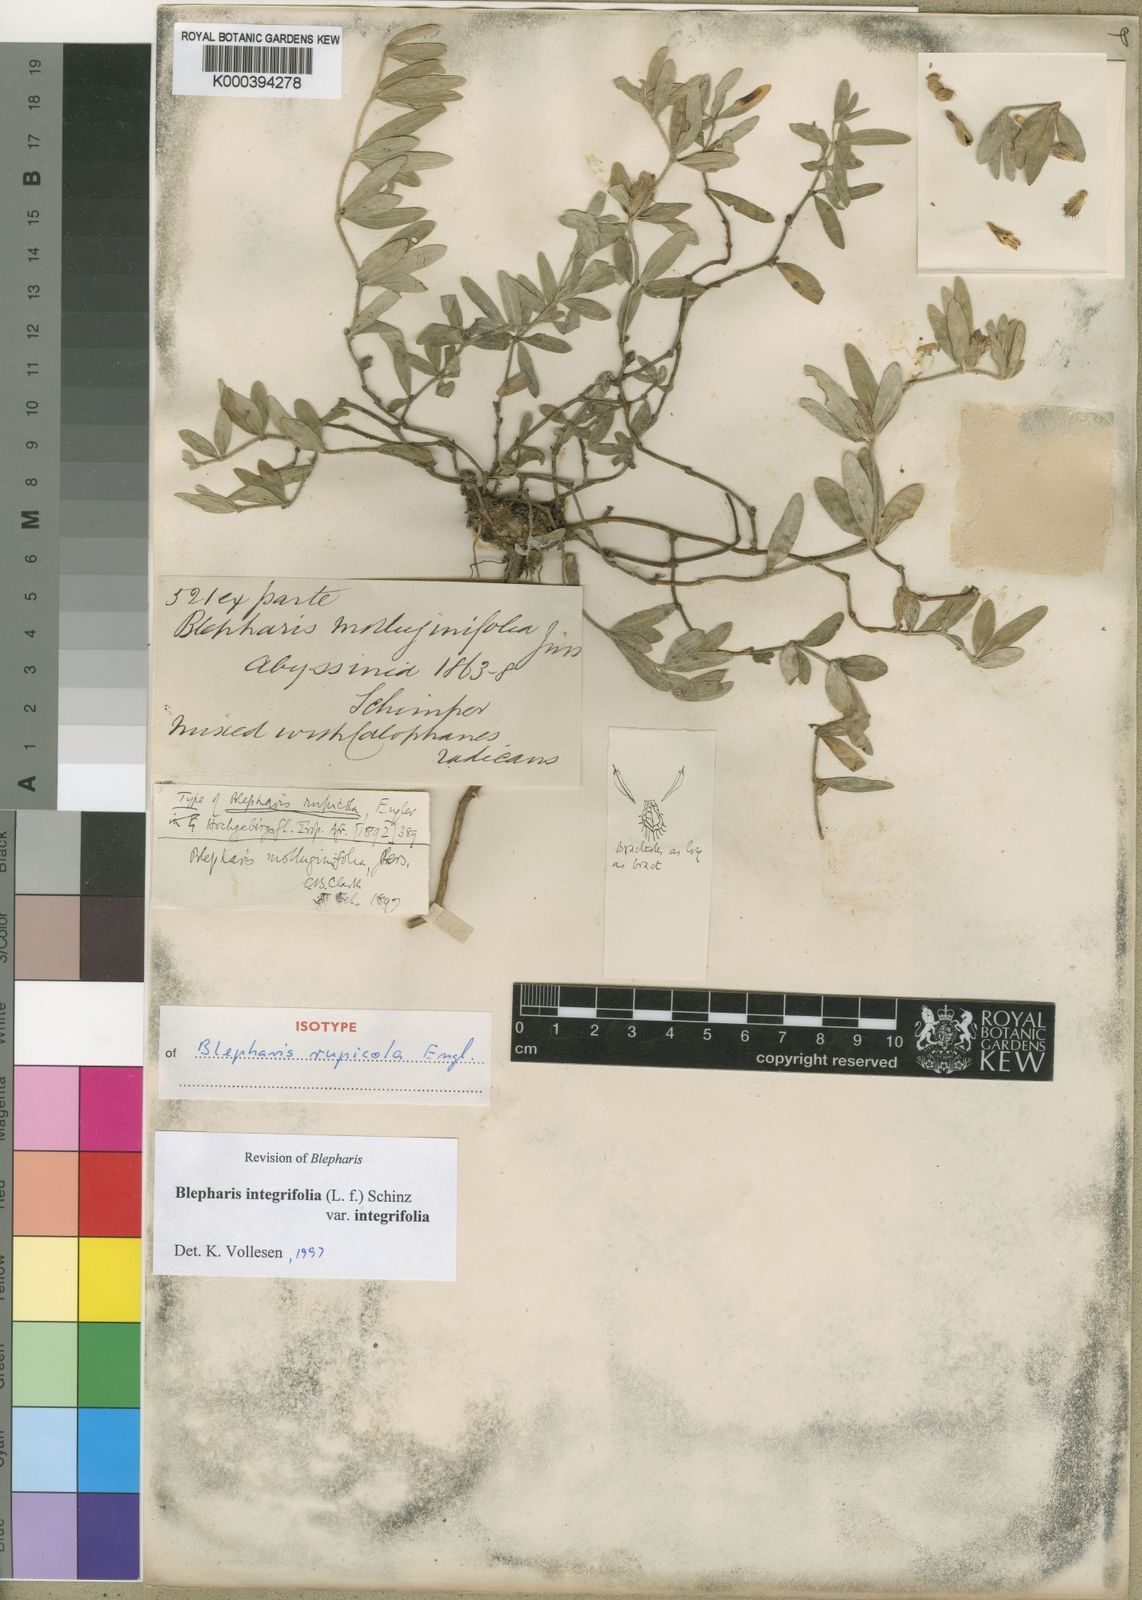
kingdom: Plantae
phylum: Tracheophyta
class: Magnoliopsida
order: Lamiales
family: Acanthaceae
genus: Blepharis
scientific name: Blepharis integrifolia
